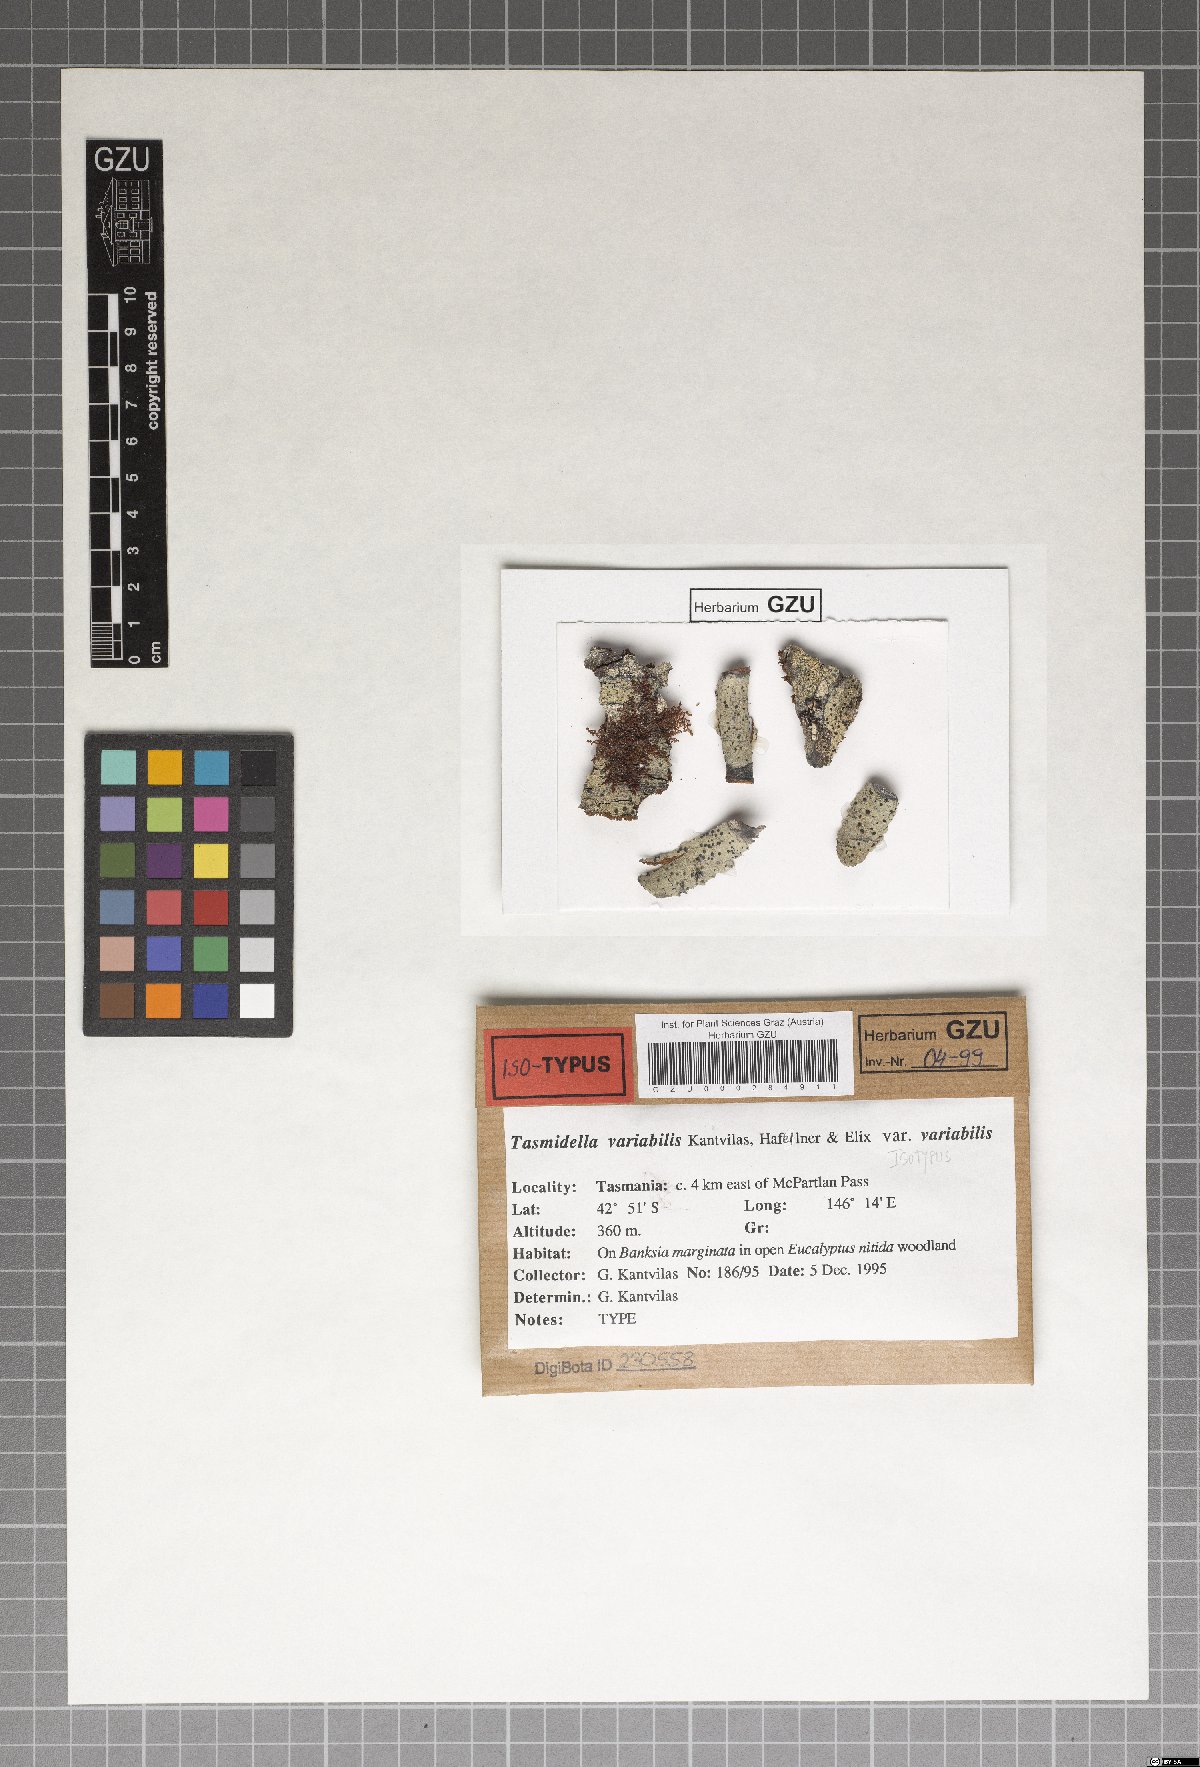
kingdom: Fungi
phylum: Ascomycota
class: Lecanoromycetes
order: Lecanorales
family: Ramalinaceae
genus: Tasmidella
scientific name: Tasmidella variabilis
